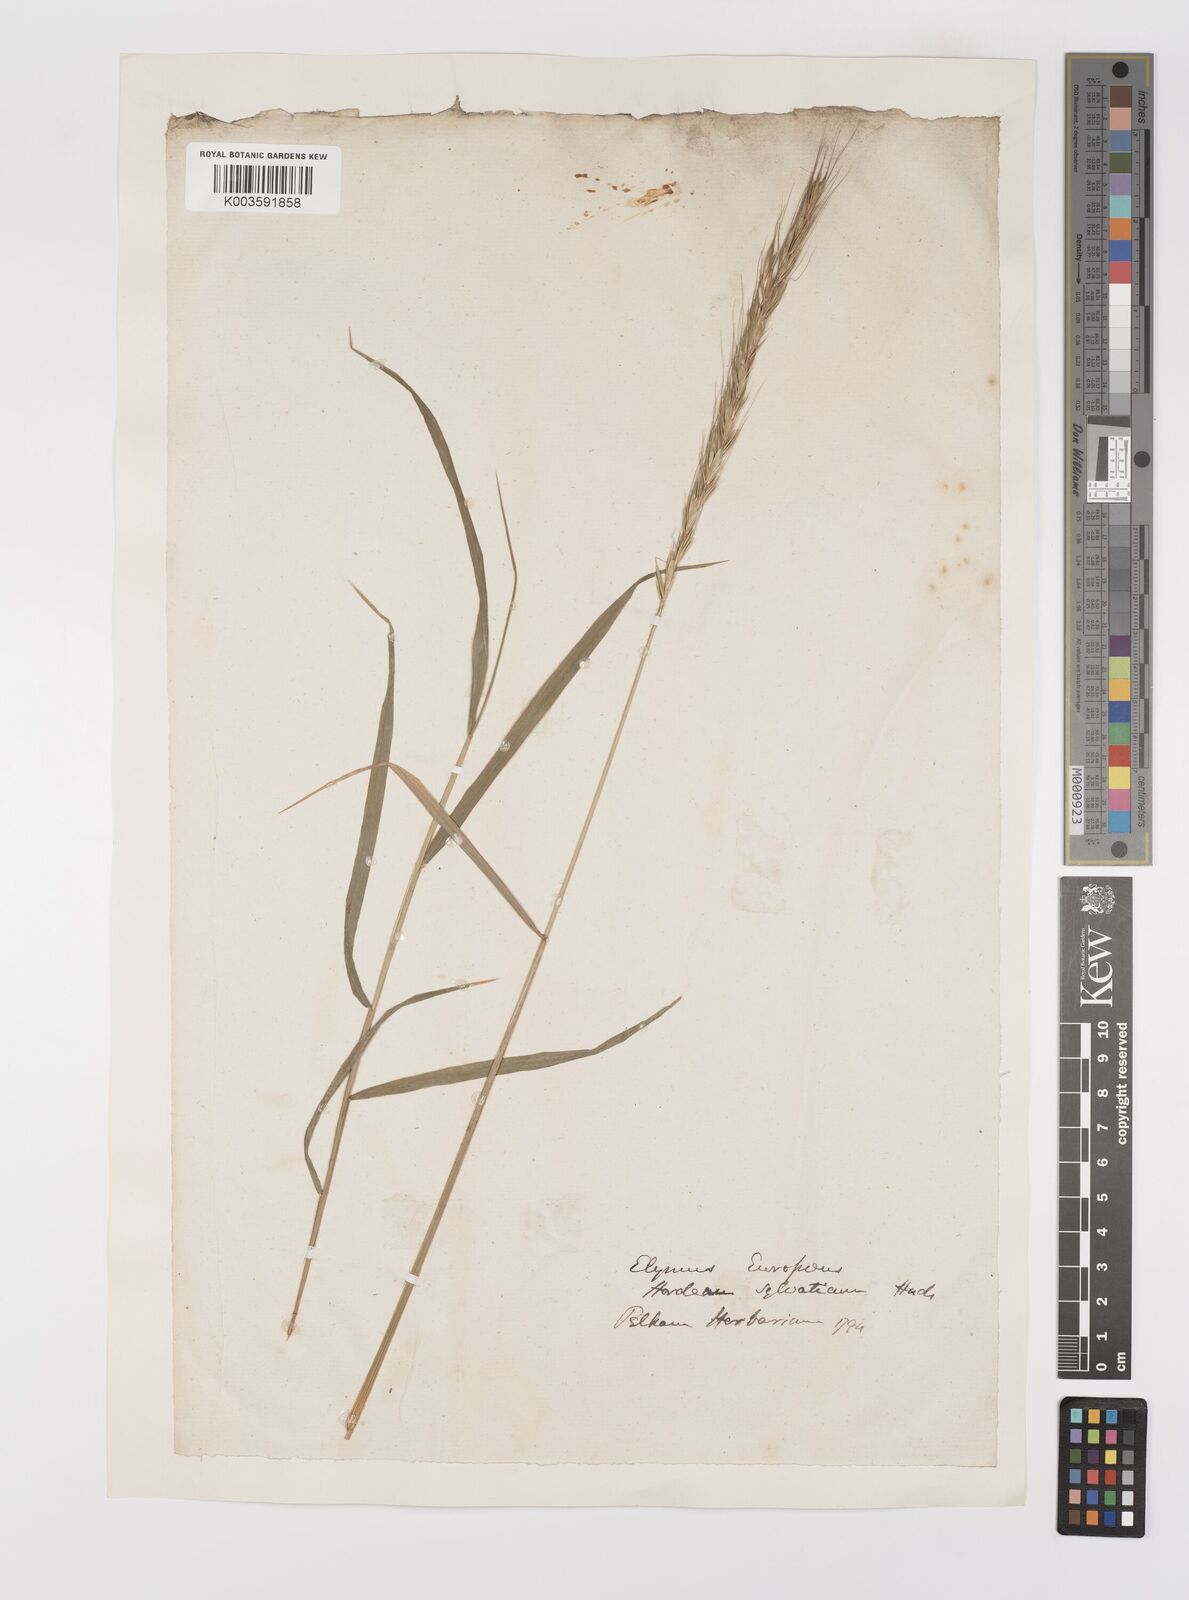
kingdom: Plantae
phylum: Tracheophyta
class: Liliopsida
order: Poales
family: Poaceae
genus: Hordelymus
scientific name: Hordelymus europaeus
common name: Wood-barley
